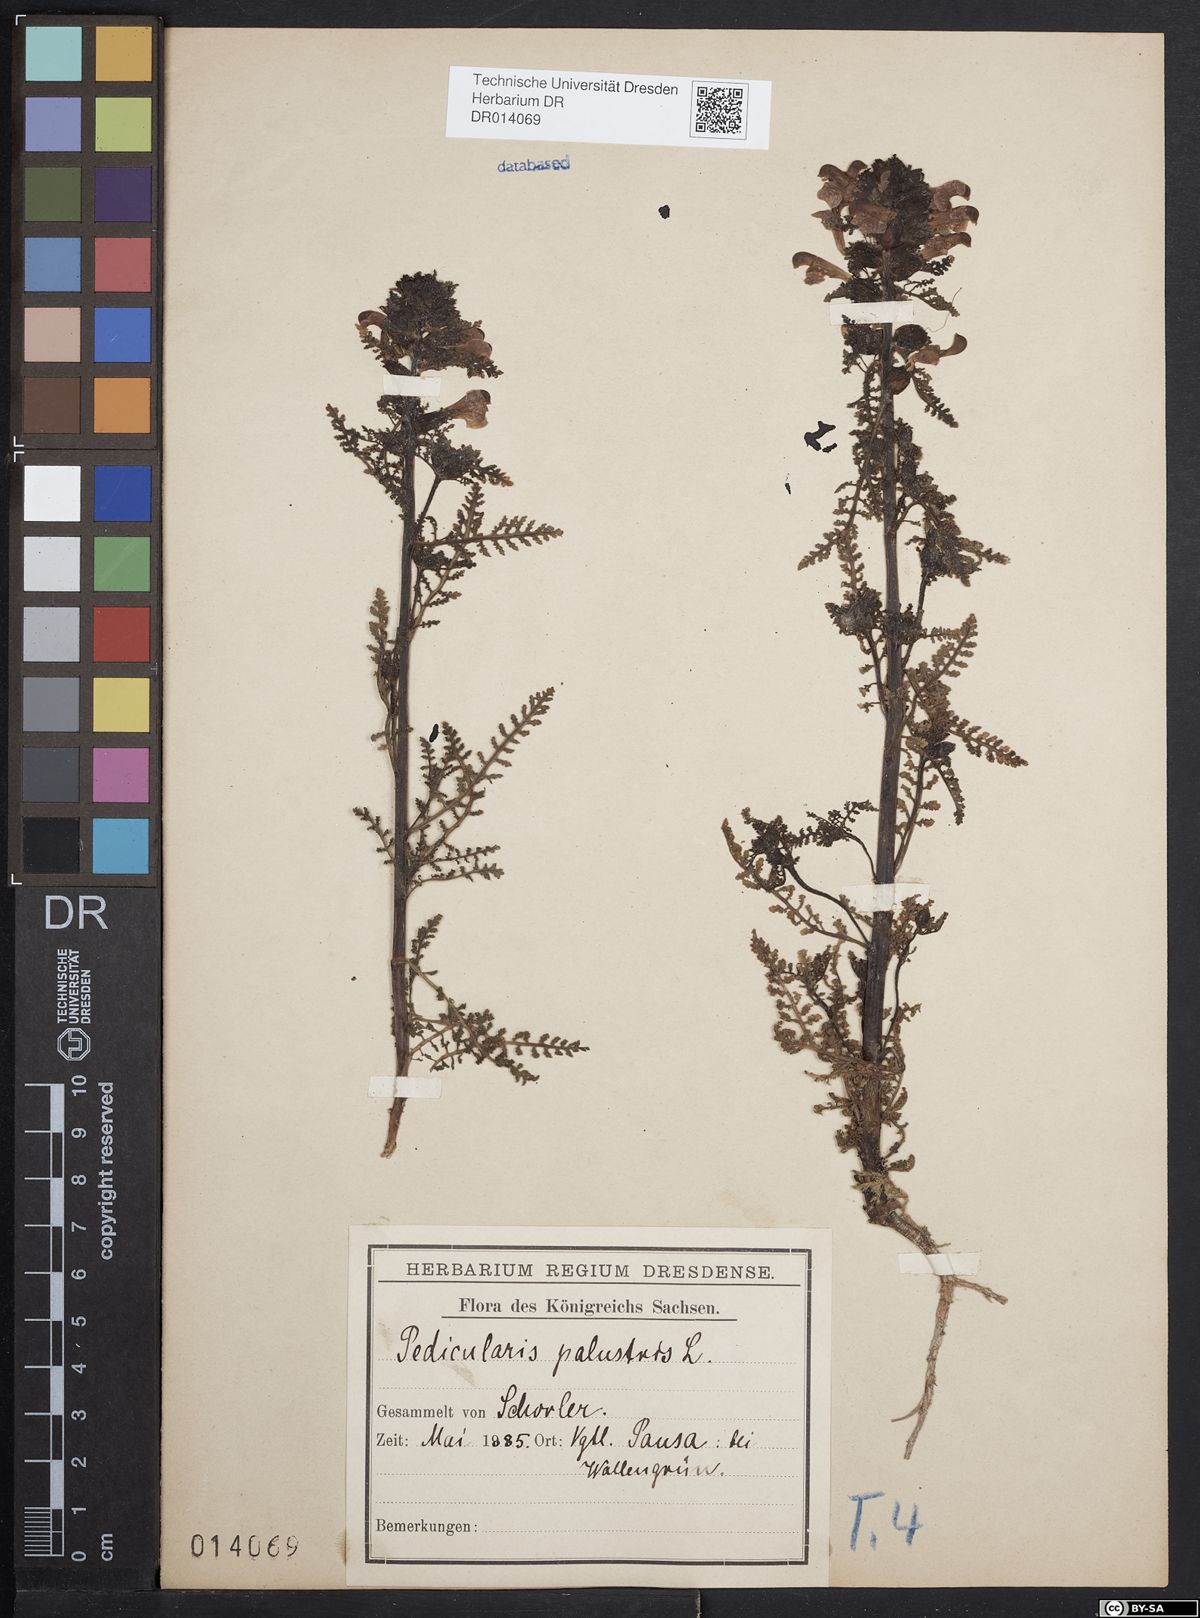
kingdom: Plantae
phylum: Tracheophyta
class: Magnoliopsida
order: Lamiales
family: Orobanchaceae
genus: Pedicularis
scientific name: Pedicularis palustris
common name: Marsh lousewort
